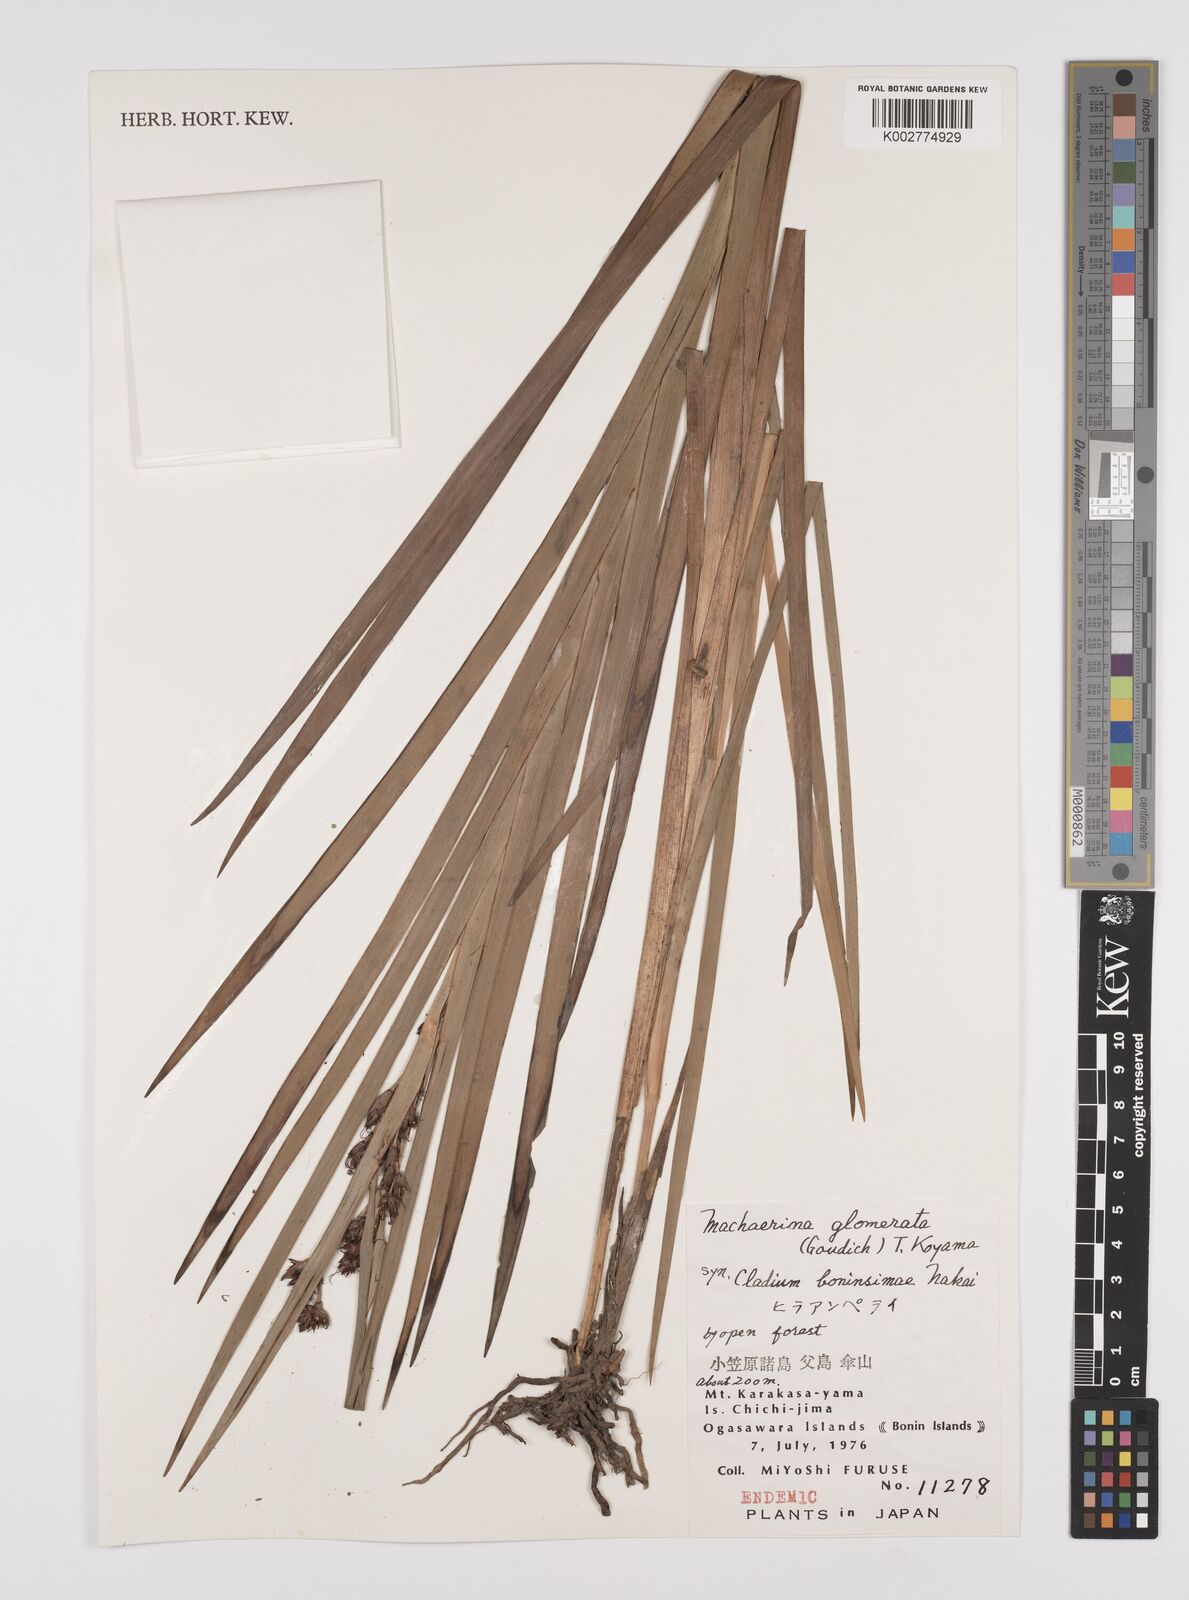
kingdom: Plantae
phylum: Tracheophyta
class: Liliopsida
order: Poales
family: Cyperaceae
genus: Machaerina
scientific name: Machaerina glomerata
